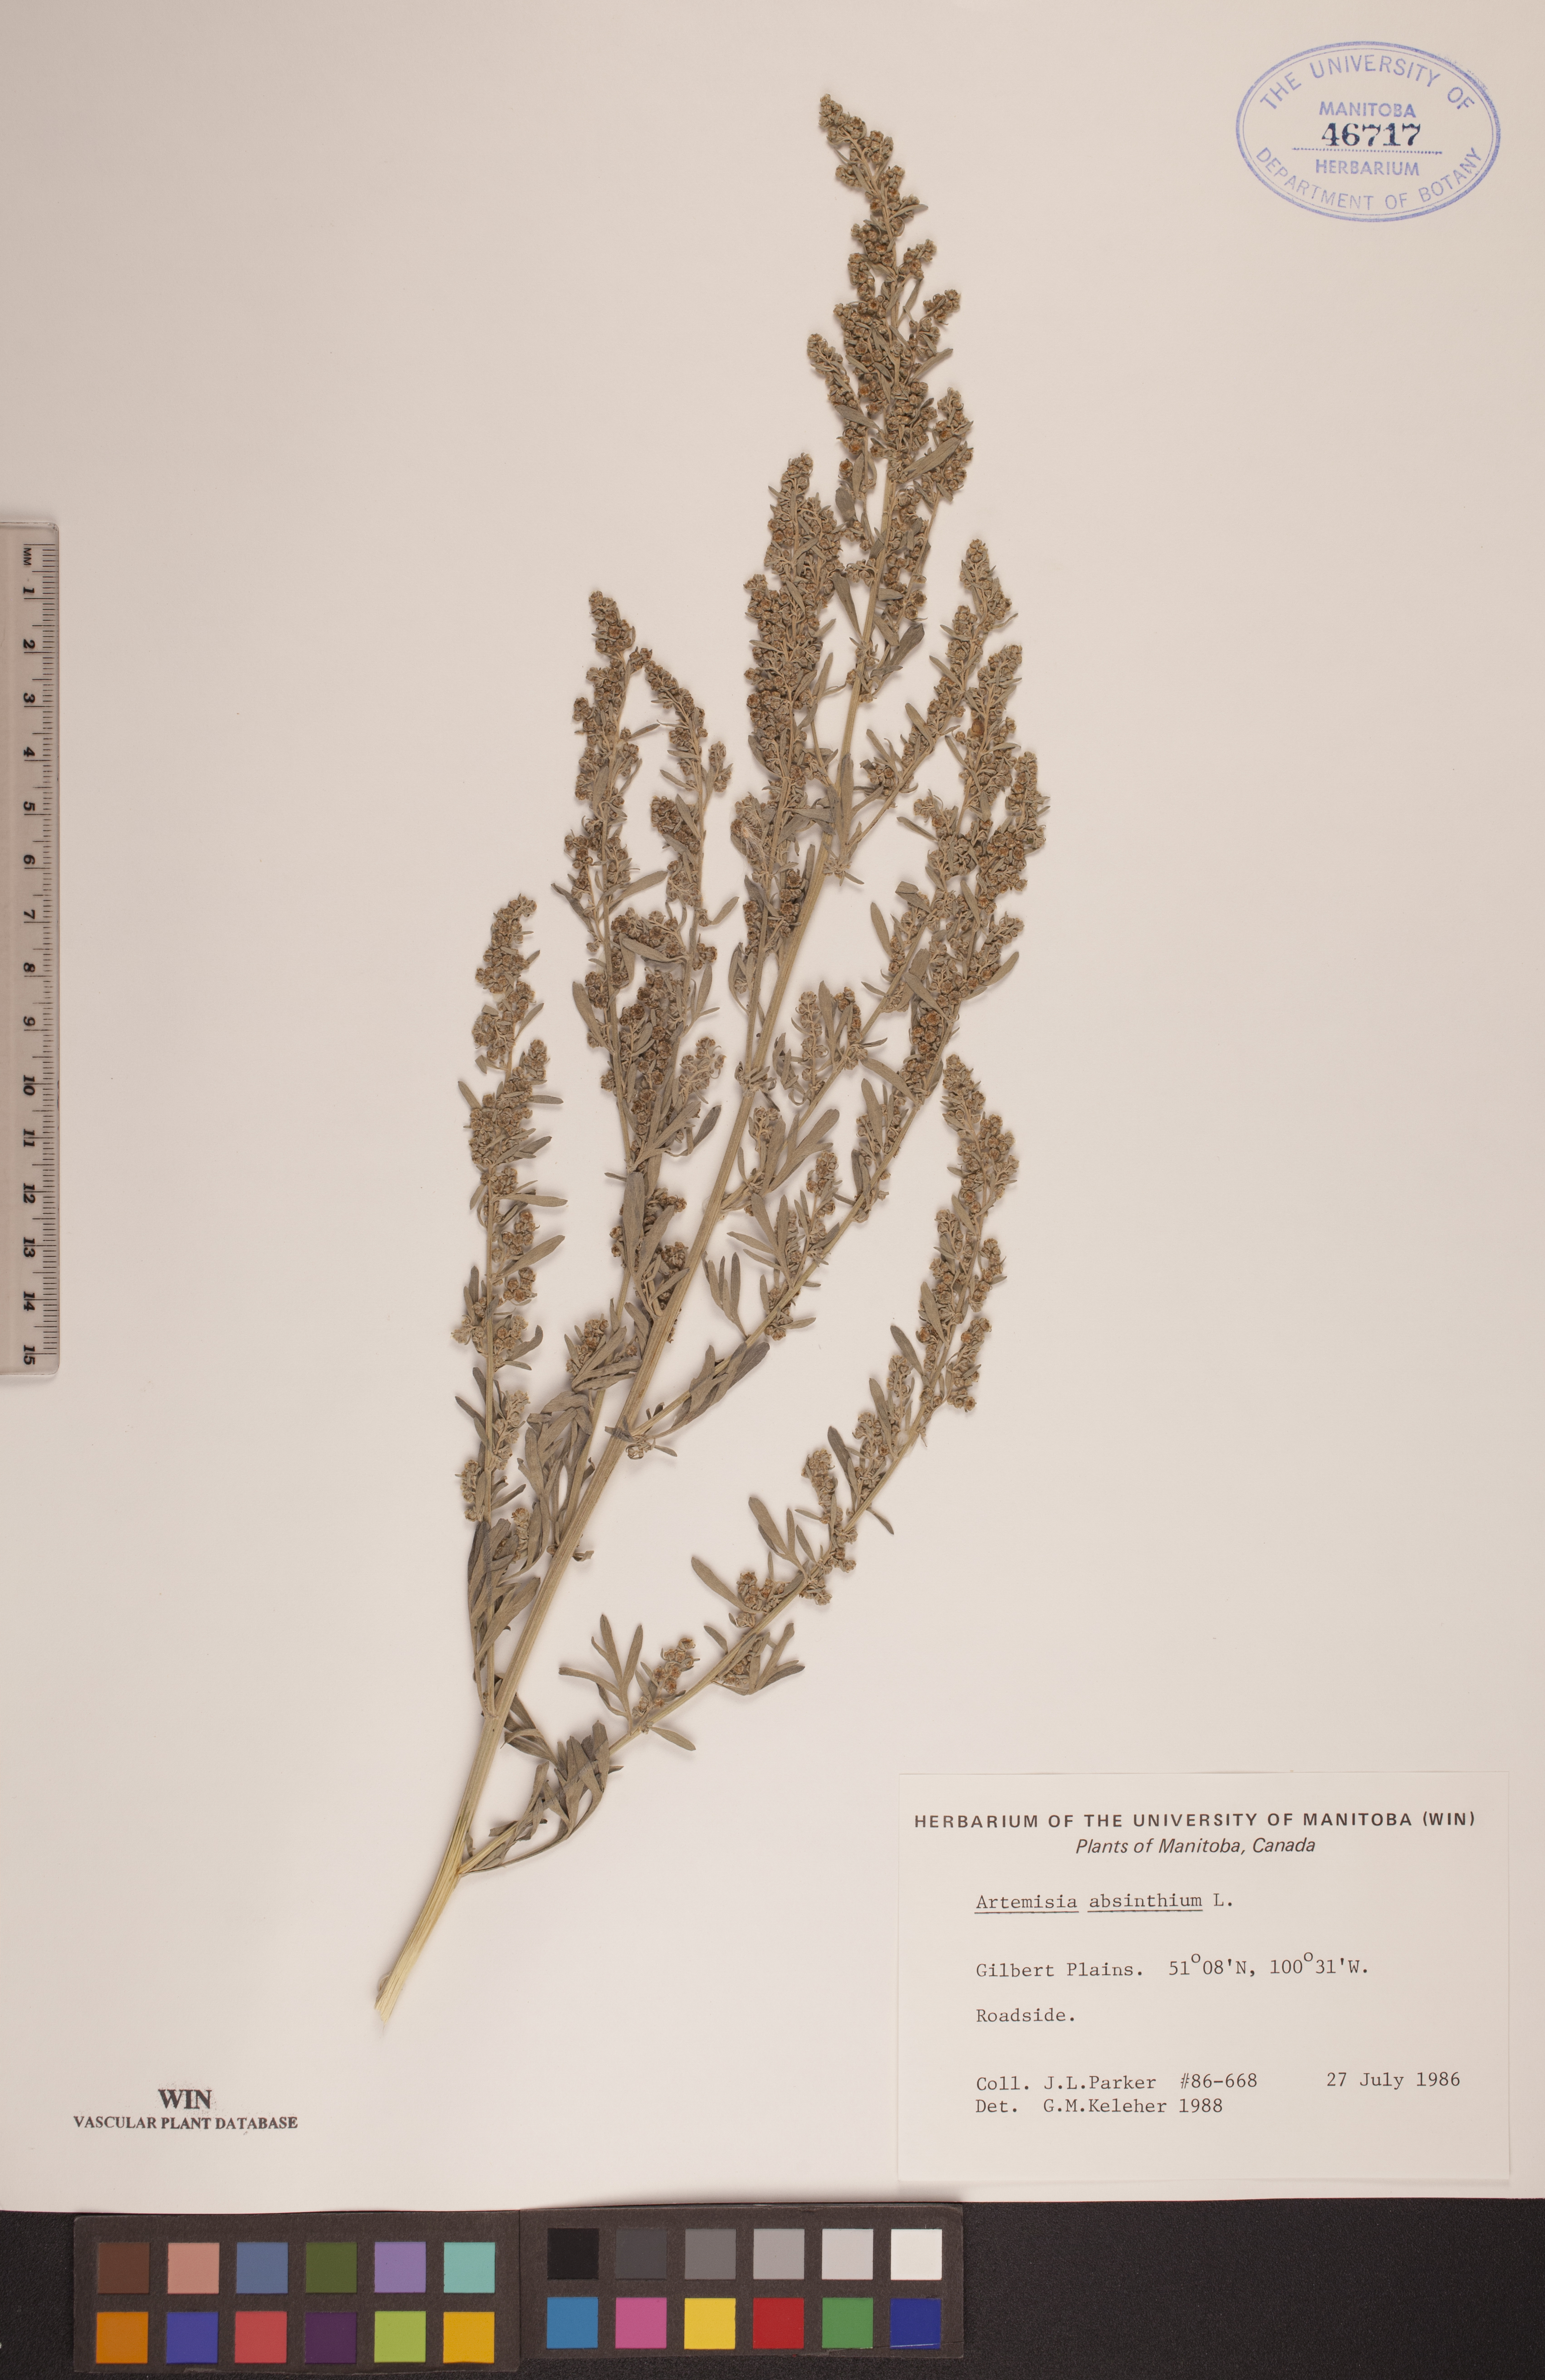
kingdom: Plantae
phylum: Tracheophyta
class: Magnoliopsida
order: Asterales
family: Asteraceae
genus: Artemisia
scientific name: Artemisia absinthium
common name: Wormwood
